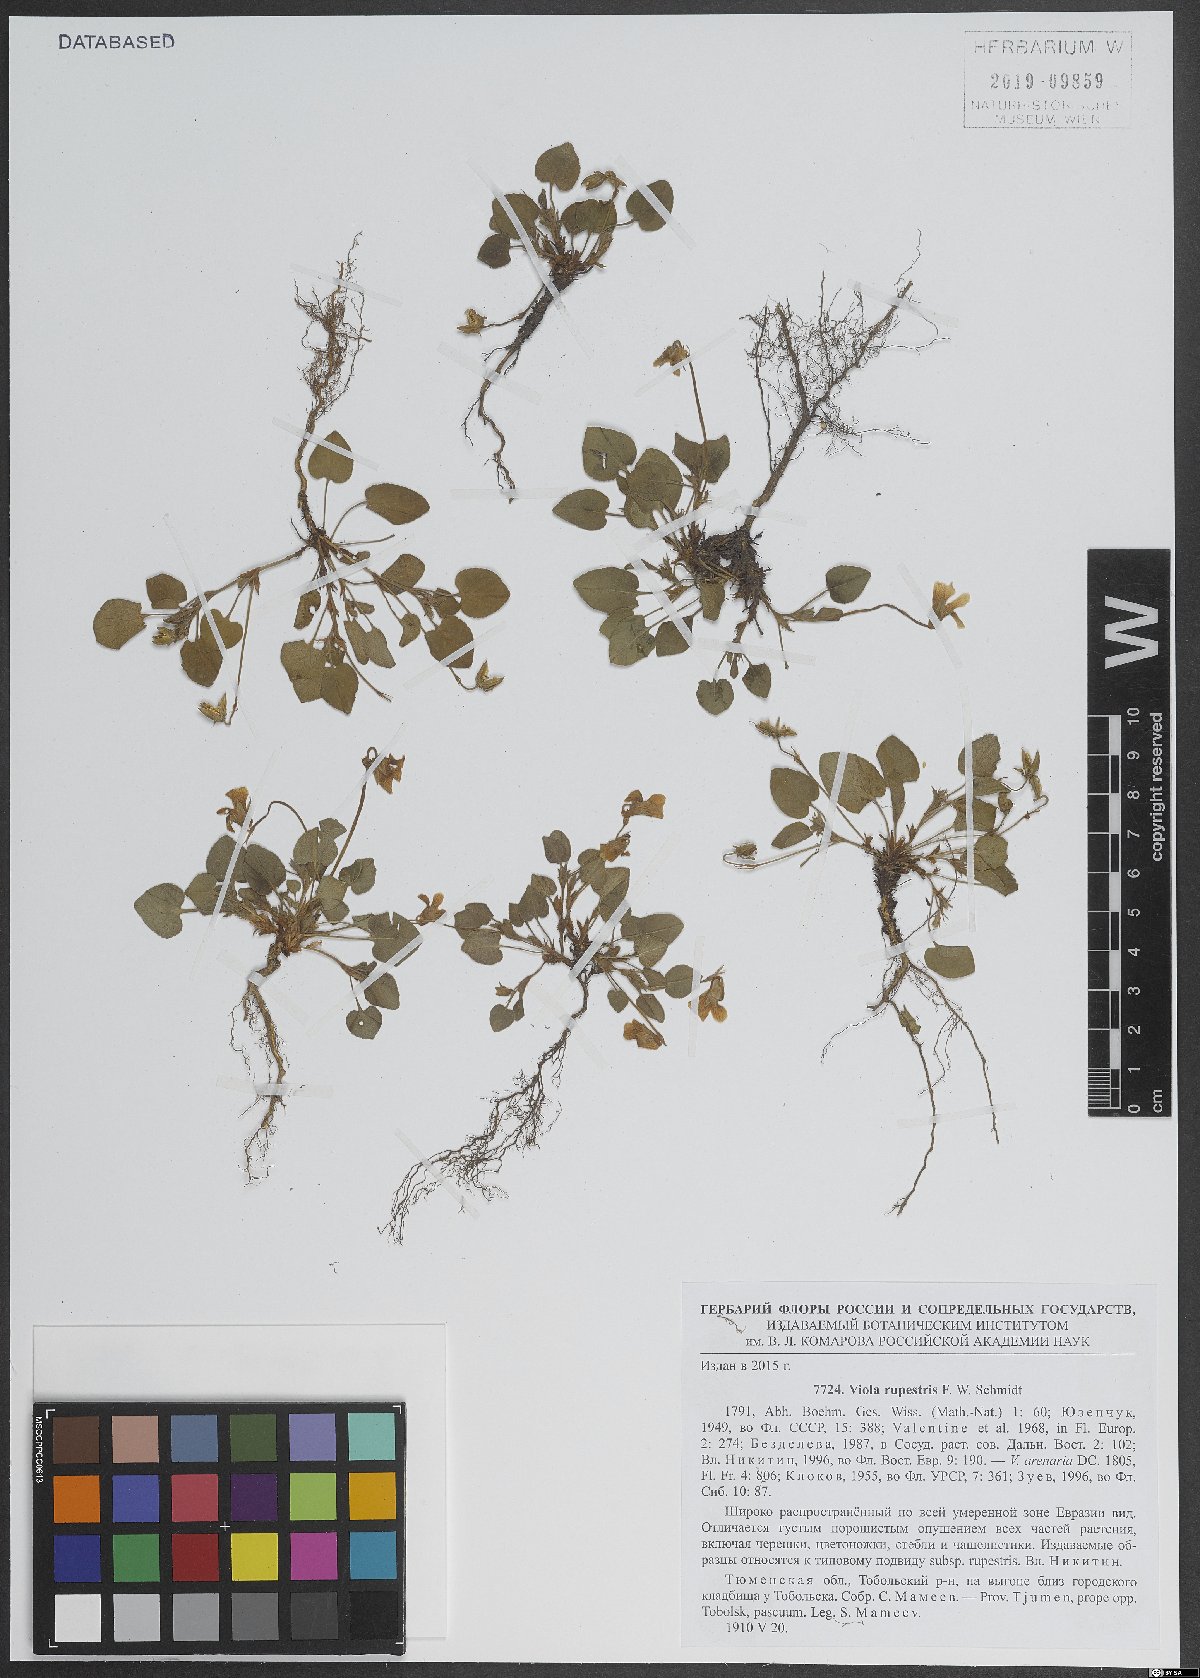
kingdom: Plantae
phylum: Tracheophyta
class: Magnoliopsida
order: Malpighiales
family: Violaceae
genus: Viola
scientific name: Viola rupestris
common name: Teesdale violet
